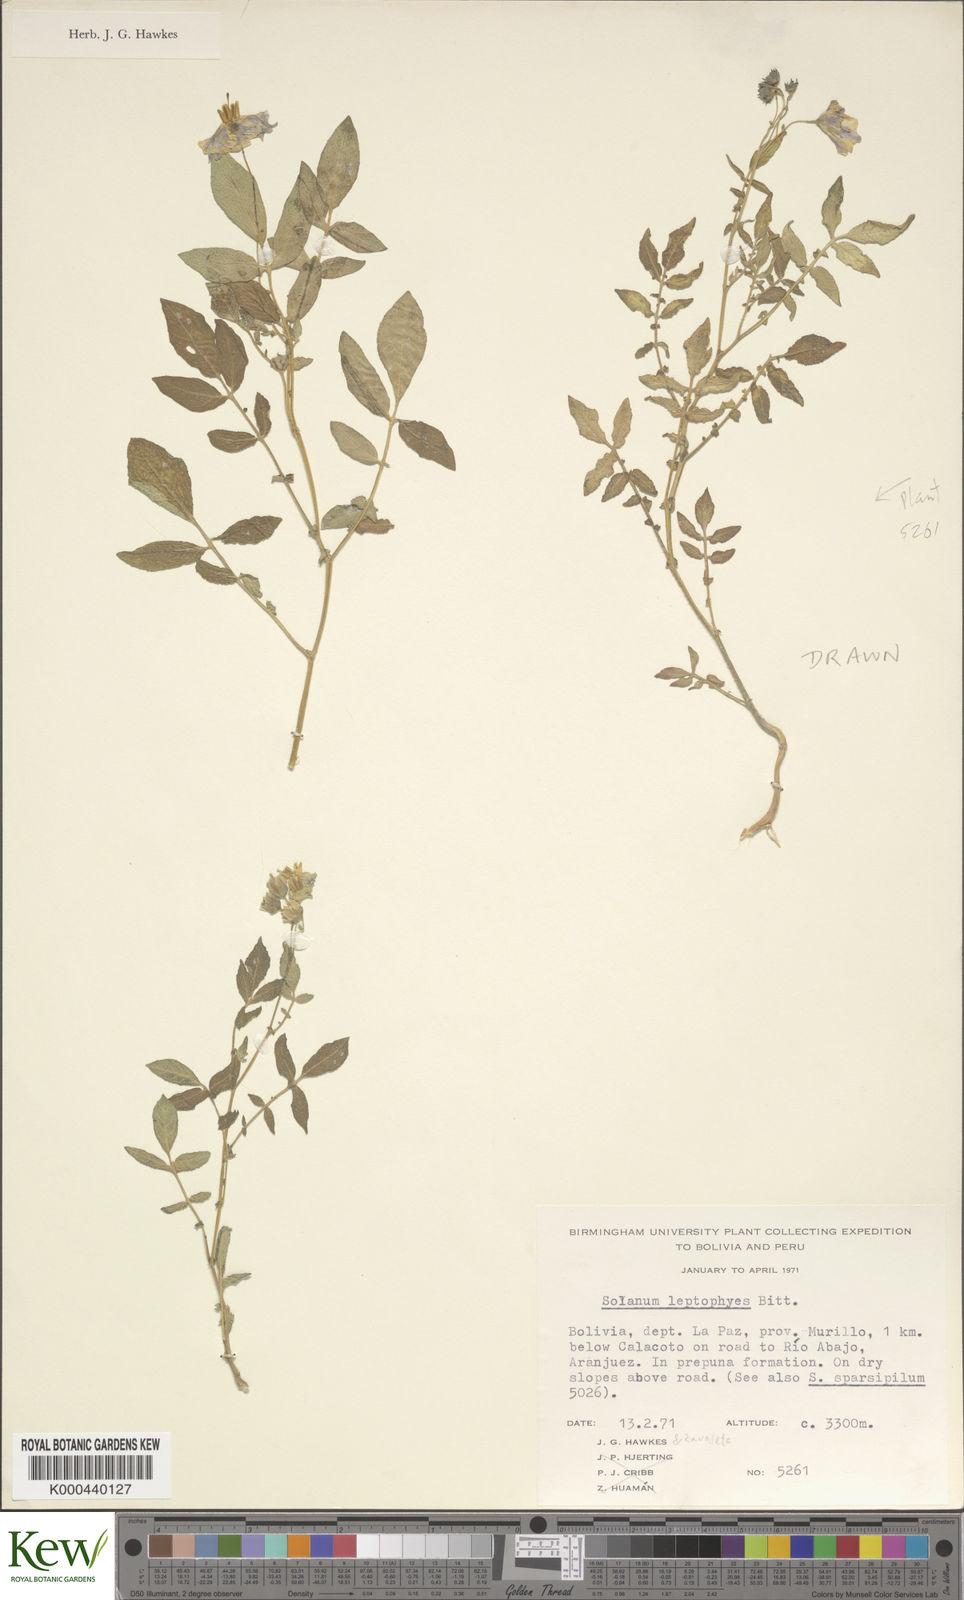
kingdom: Plantae
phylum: Tracheophyta
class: Magnoliopsida
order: Solanales
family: Solanaceae
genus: Solanum
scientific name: Solanum brevicaule
